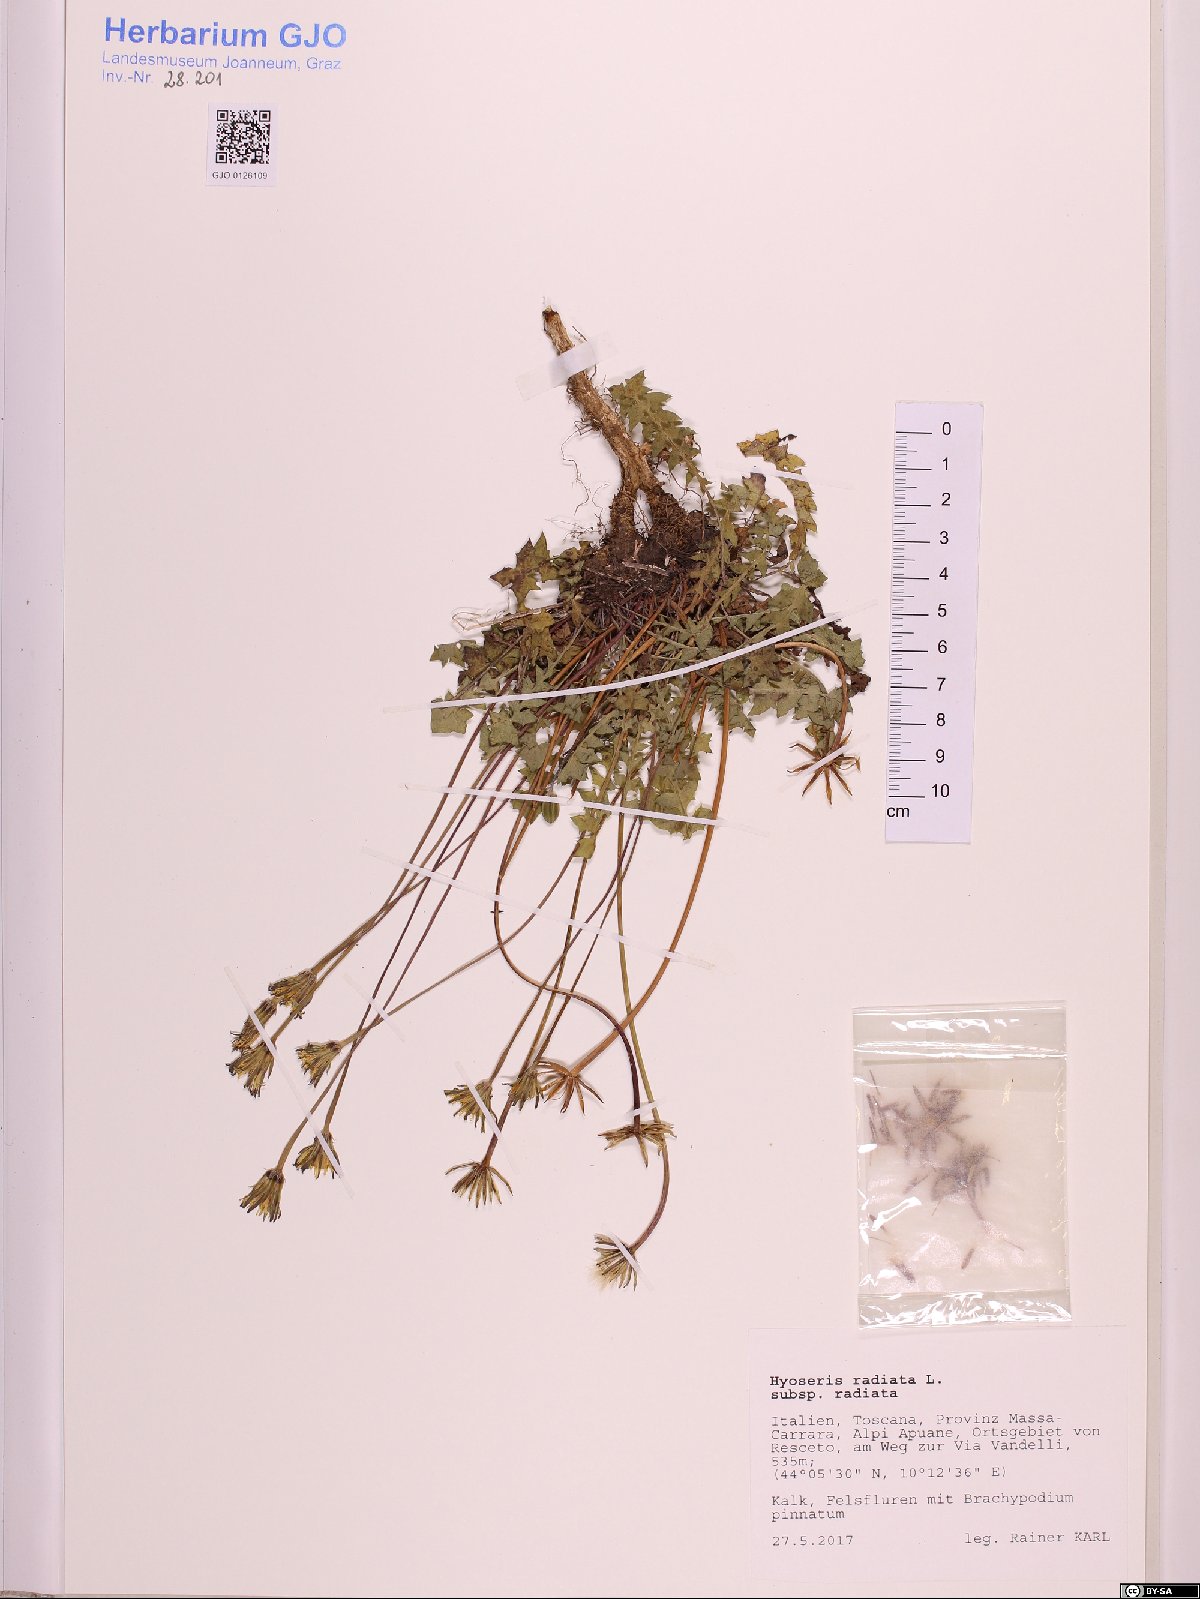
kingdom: Plantae
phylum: Tracheophyta
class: Magnoliopsida
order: Asterales
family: Asteraceae
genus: Hyoseris
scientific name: Hyoseris radiata
